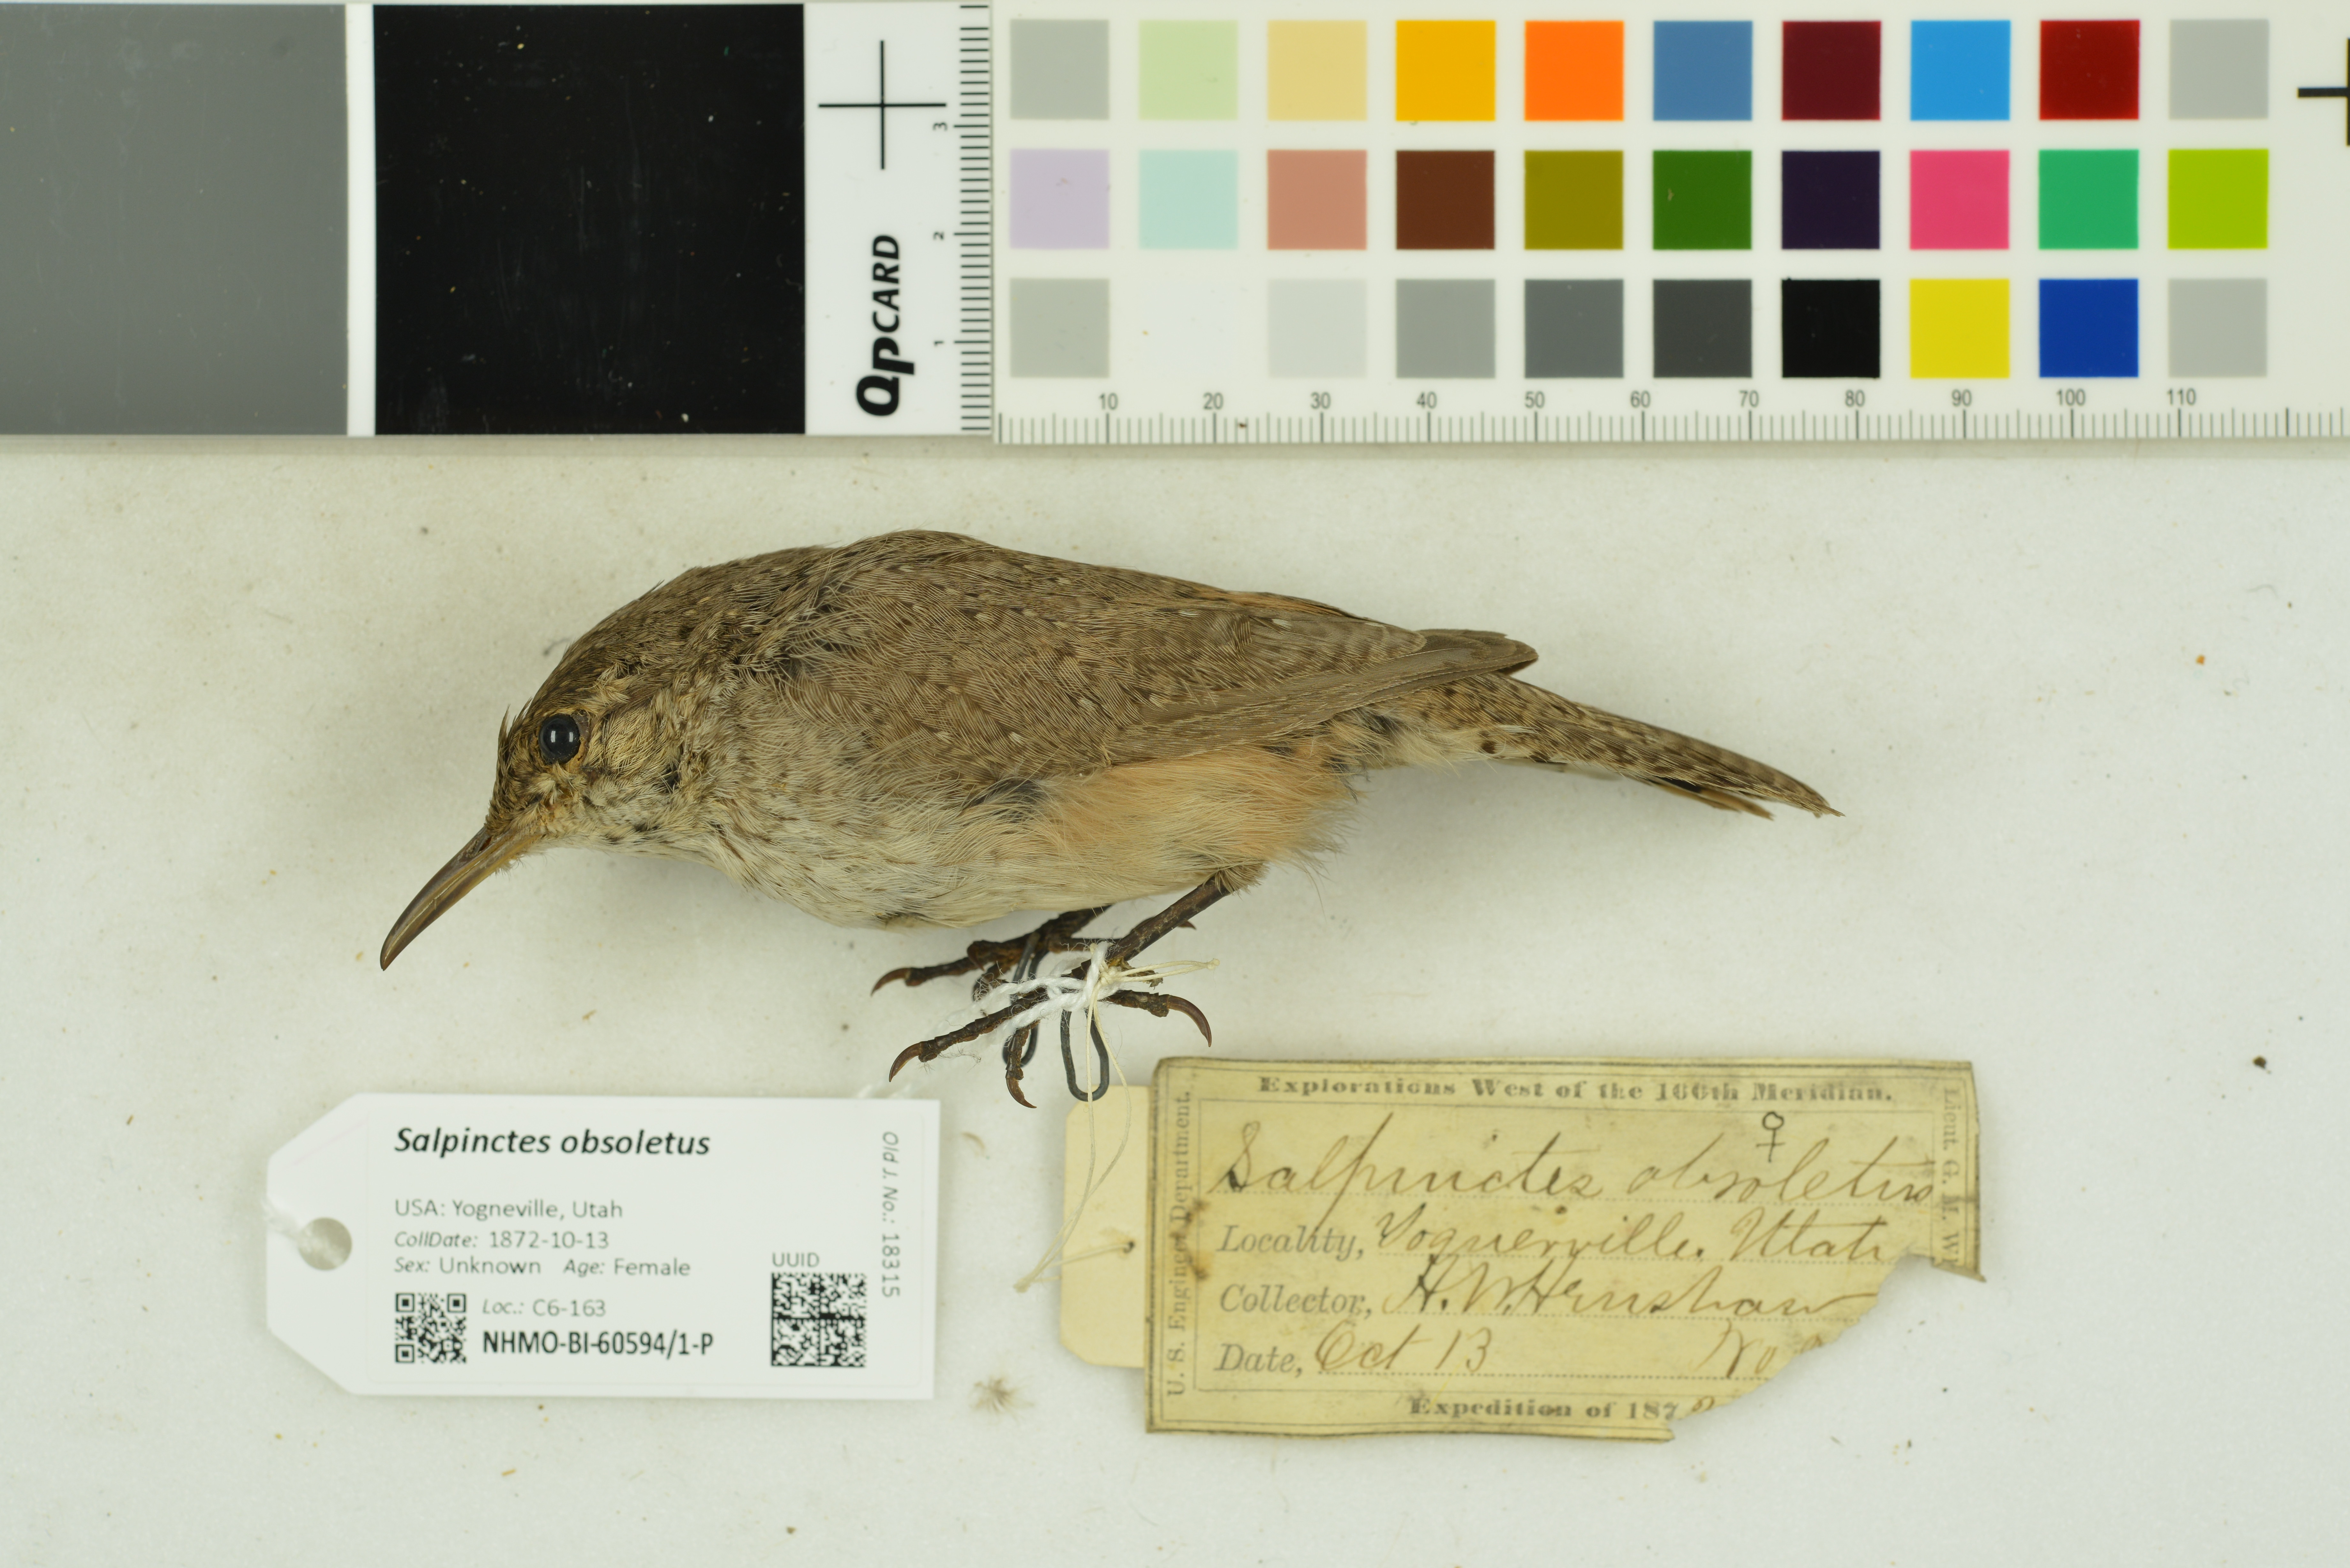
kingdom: Animalia
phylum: Chordata
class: Aves
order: Passeriformes
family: Troglodytidae
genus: Salpinctes
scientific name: Salpinctes obsoletus
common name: Rock wren
